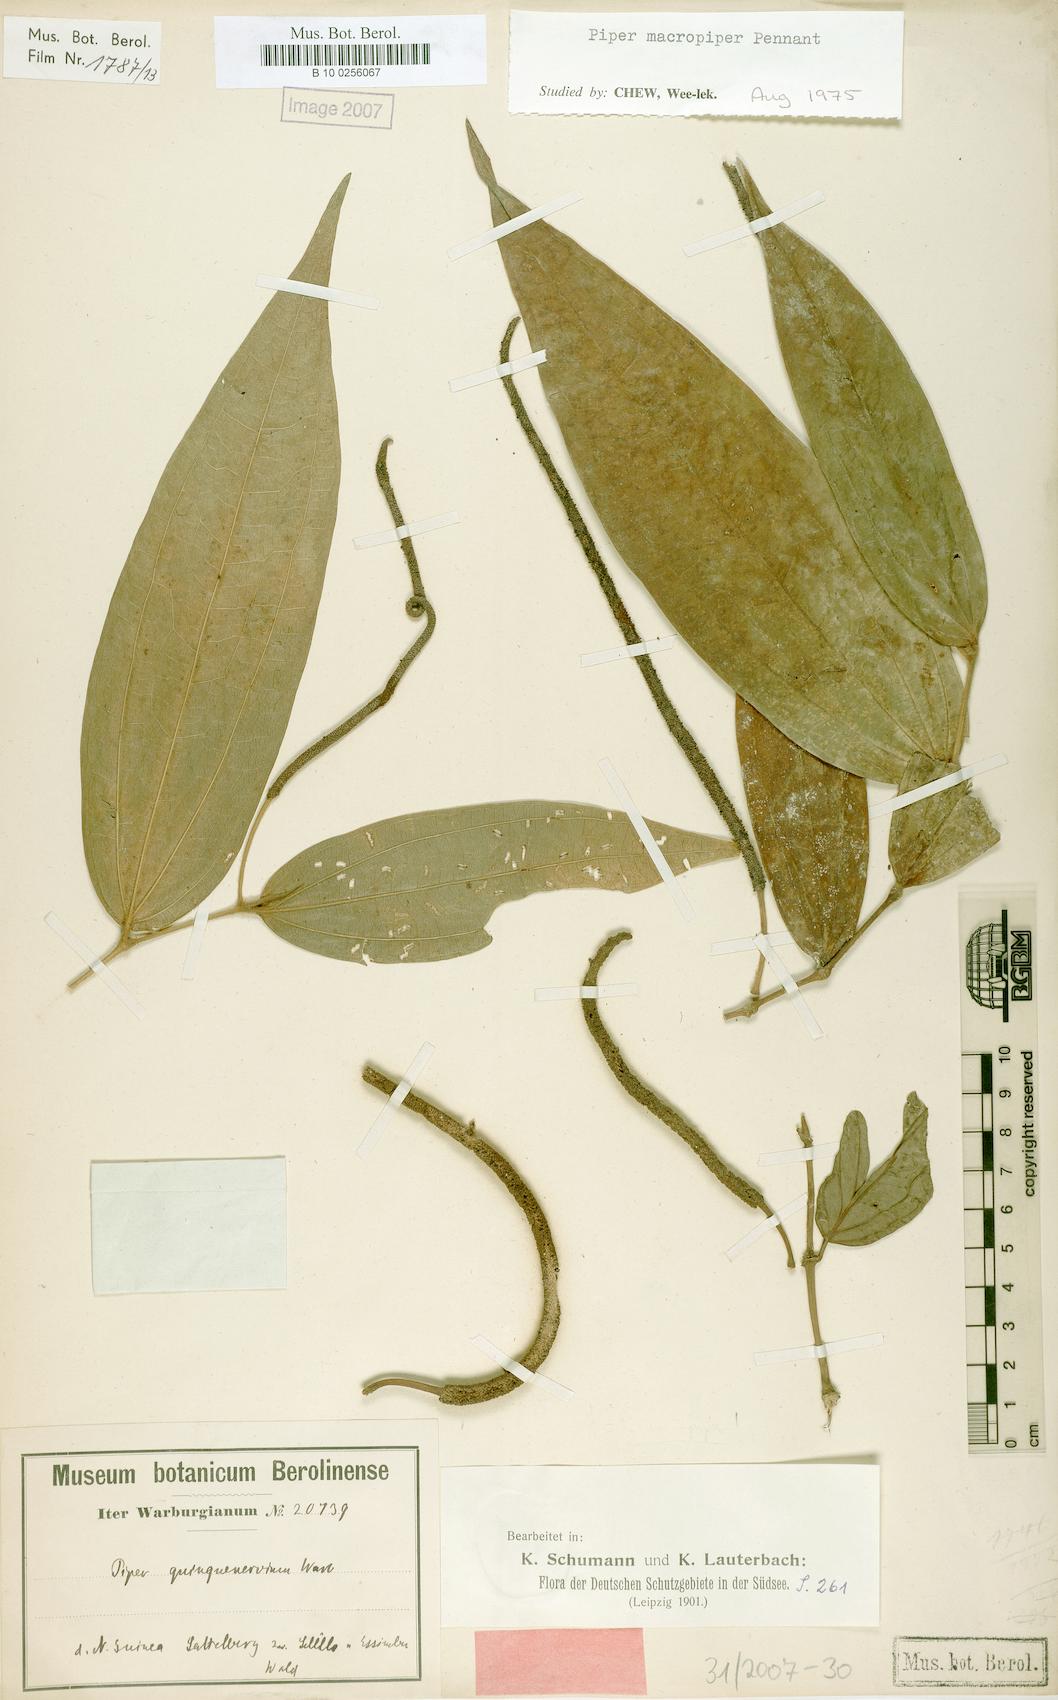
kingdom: Plantae
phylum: Tracheophyta
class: Magnoliopsida
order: Piperales
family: Piperaceae
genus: Piper
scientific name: Piper macropiper
